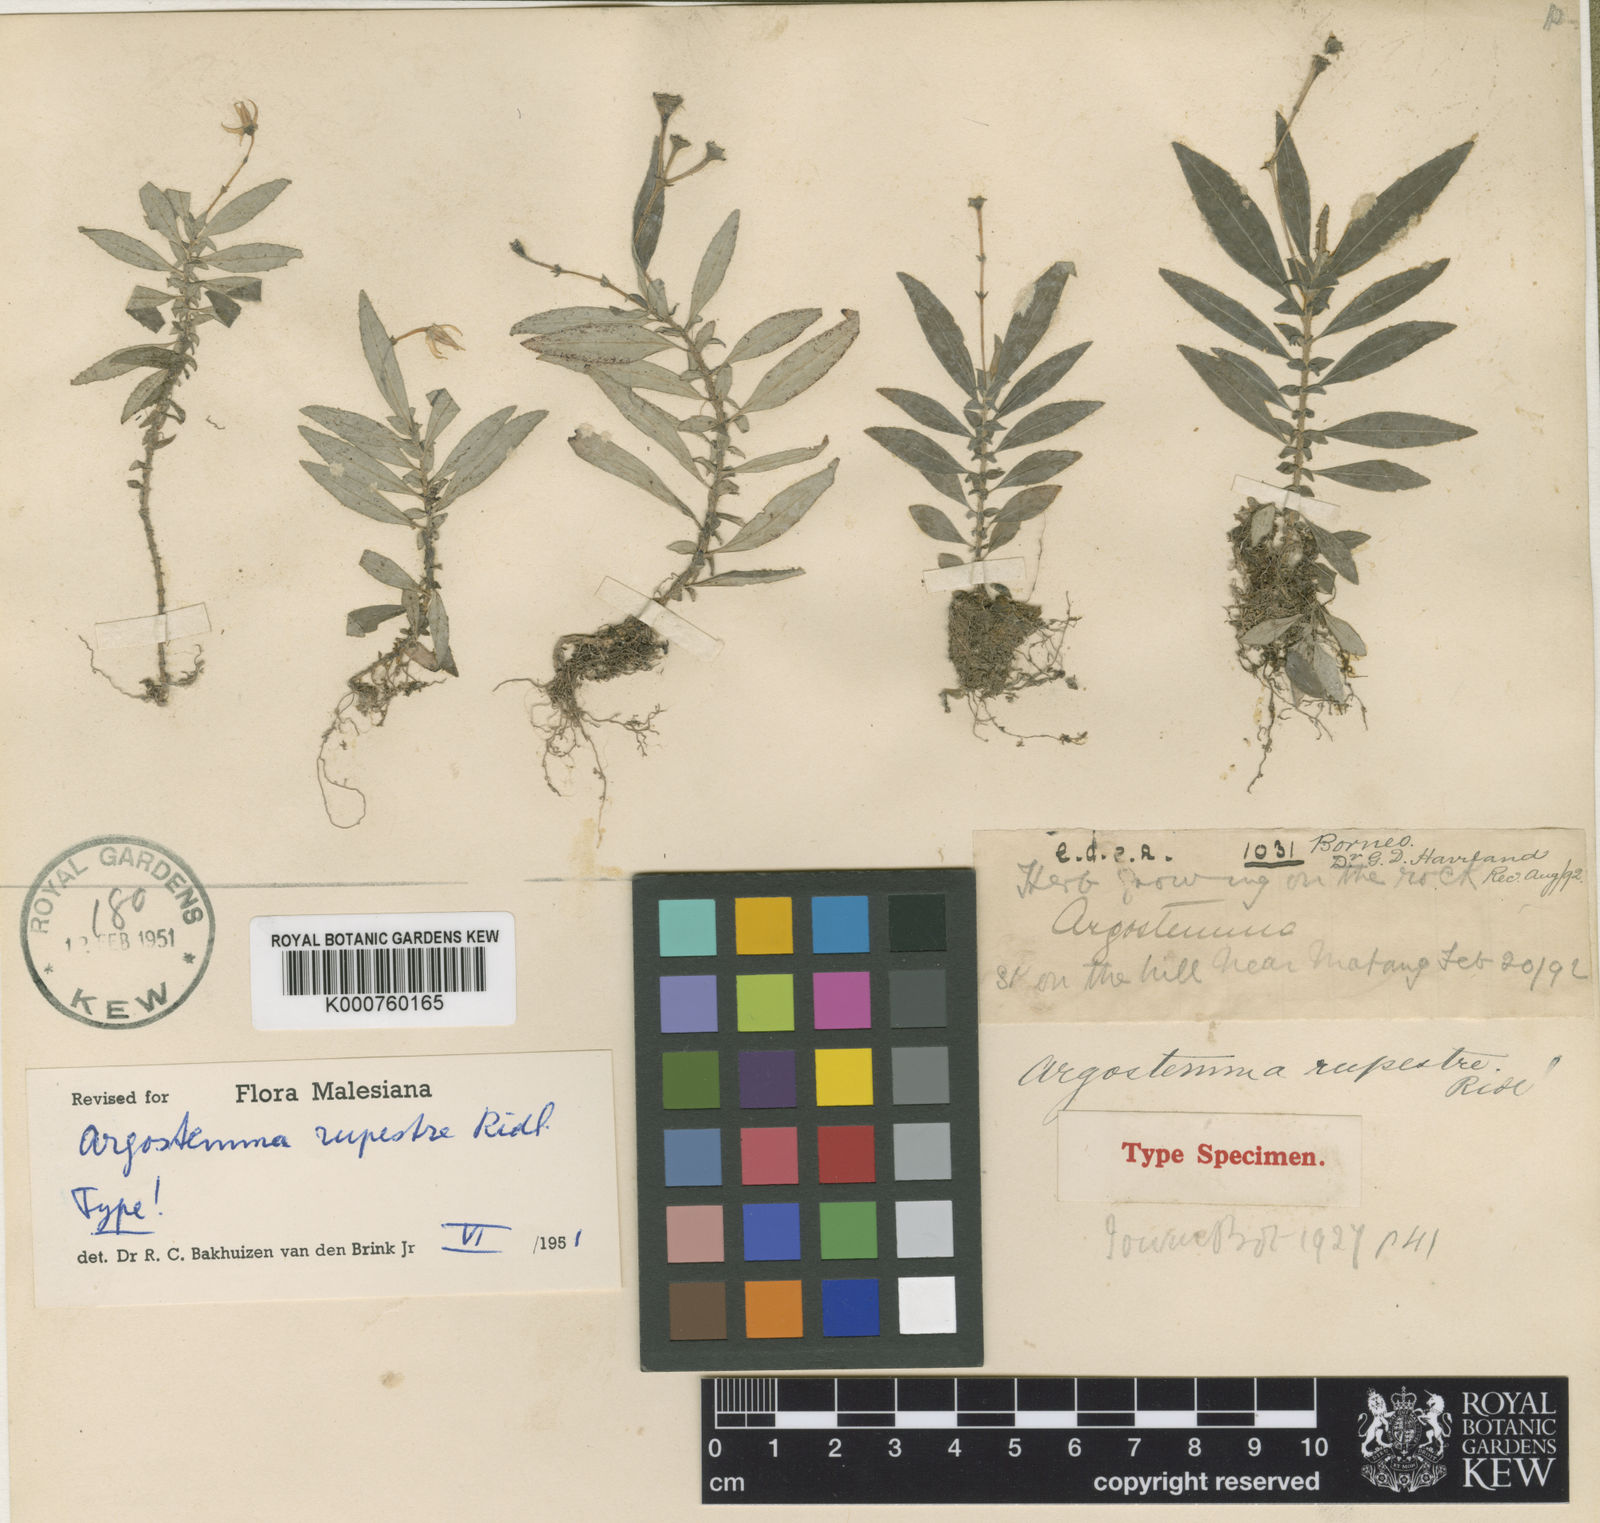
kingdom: Plantae
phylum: Tracheophyta
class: Magnoliopsida
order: Gentianales
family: Rubiaceae
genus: Argostemma
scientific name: Argostemma rupestre
